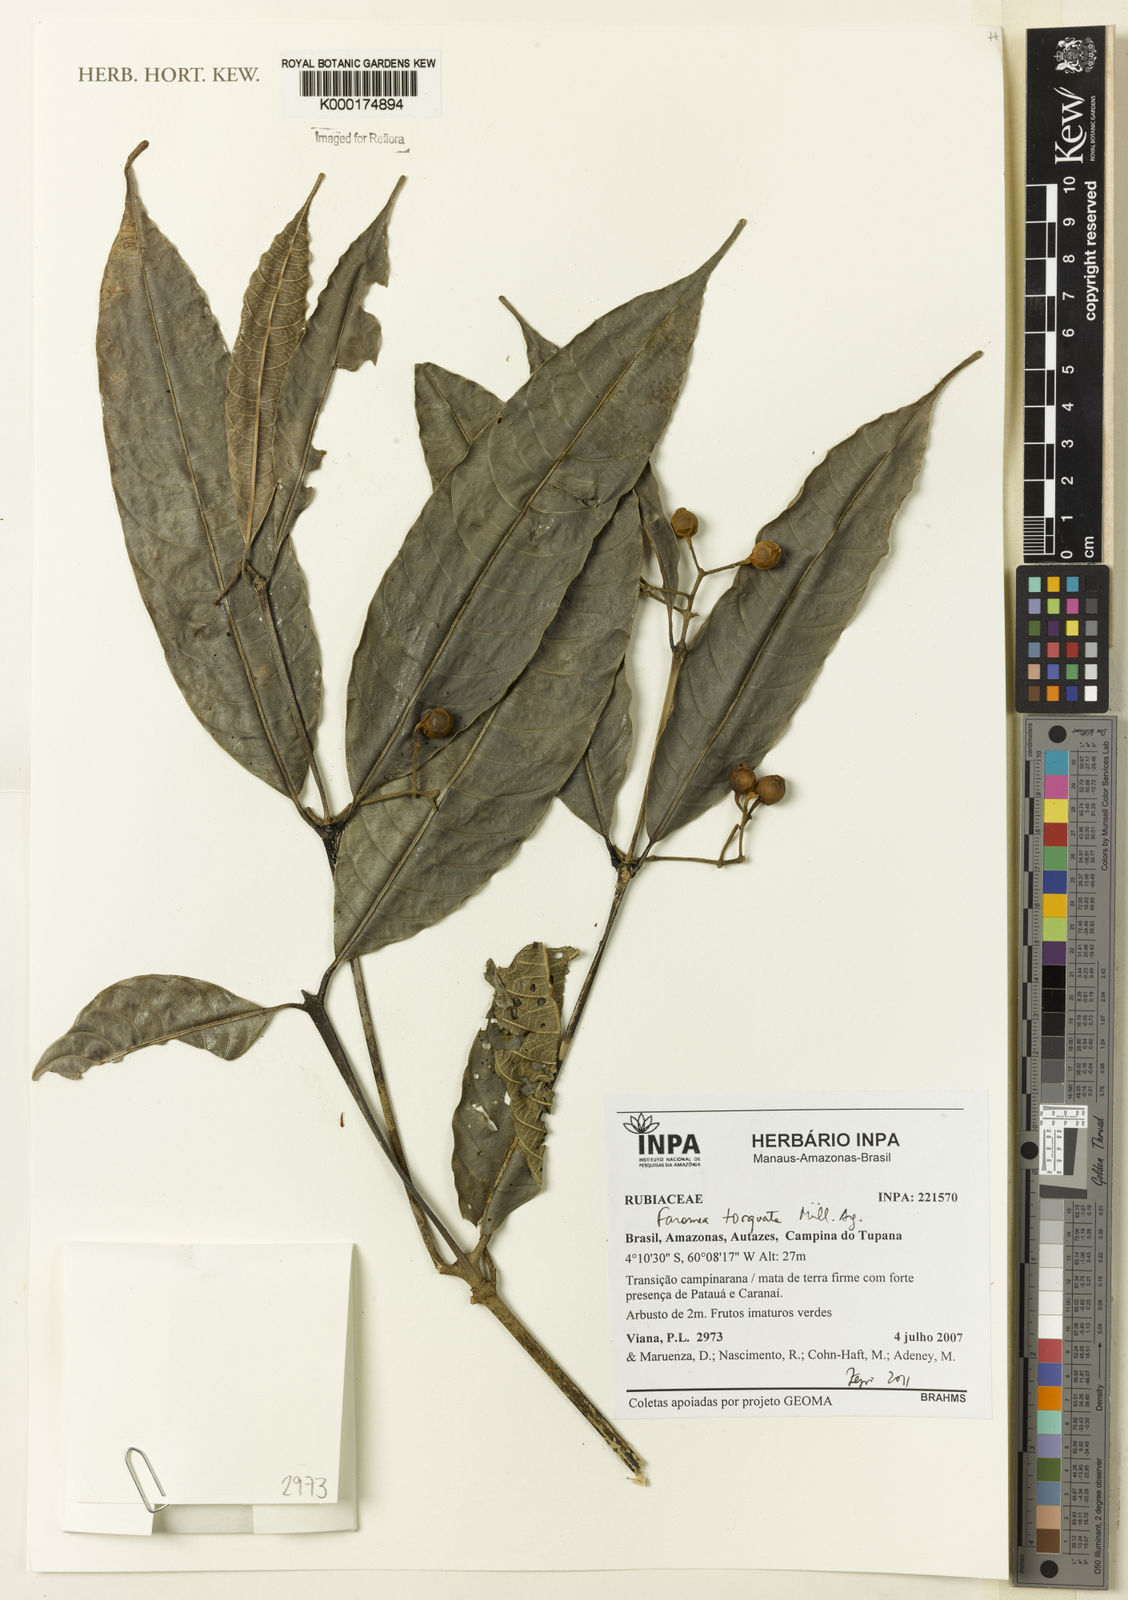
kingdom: Plantae
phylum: Tracheophyta
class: Magnoliopsida
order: Gentianales
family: Rubiaceae
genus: Faramea
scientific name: Faramea
